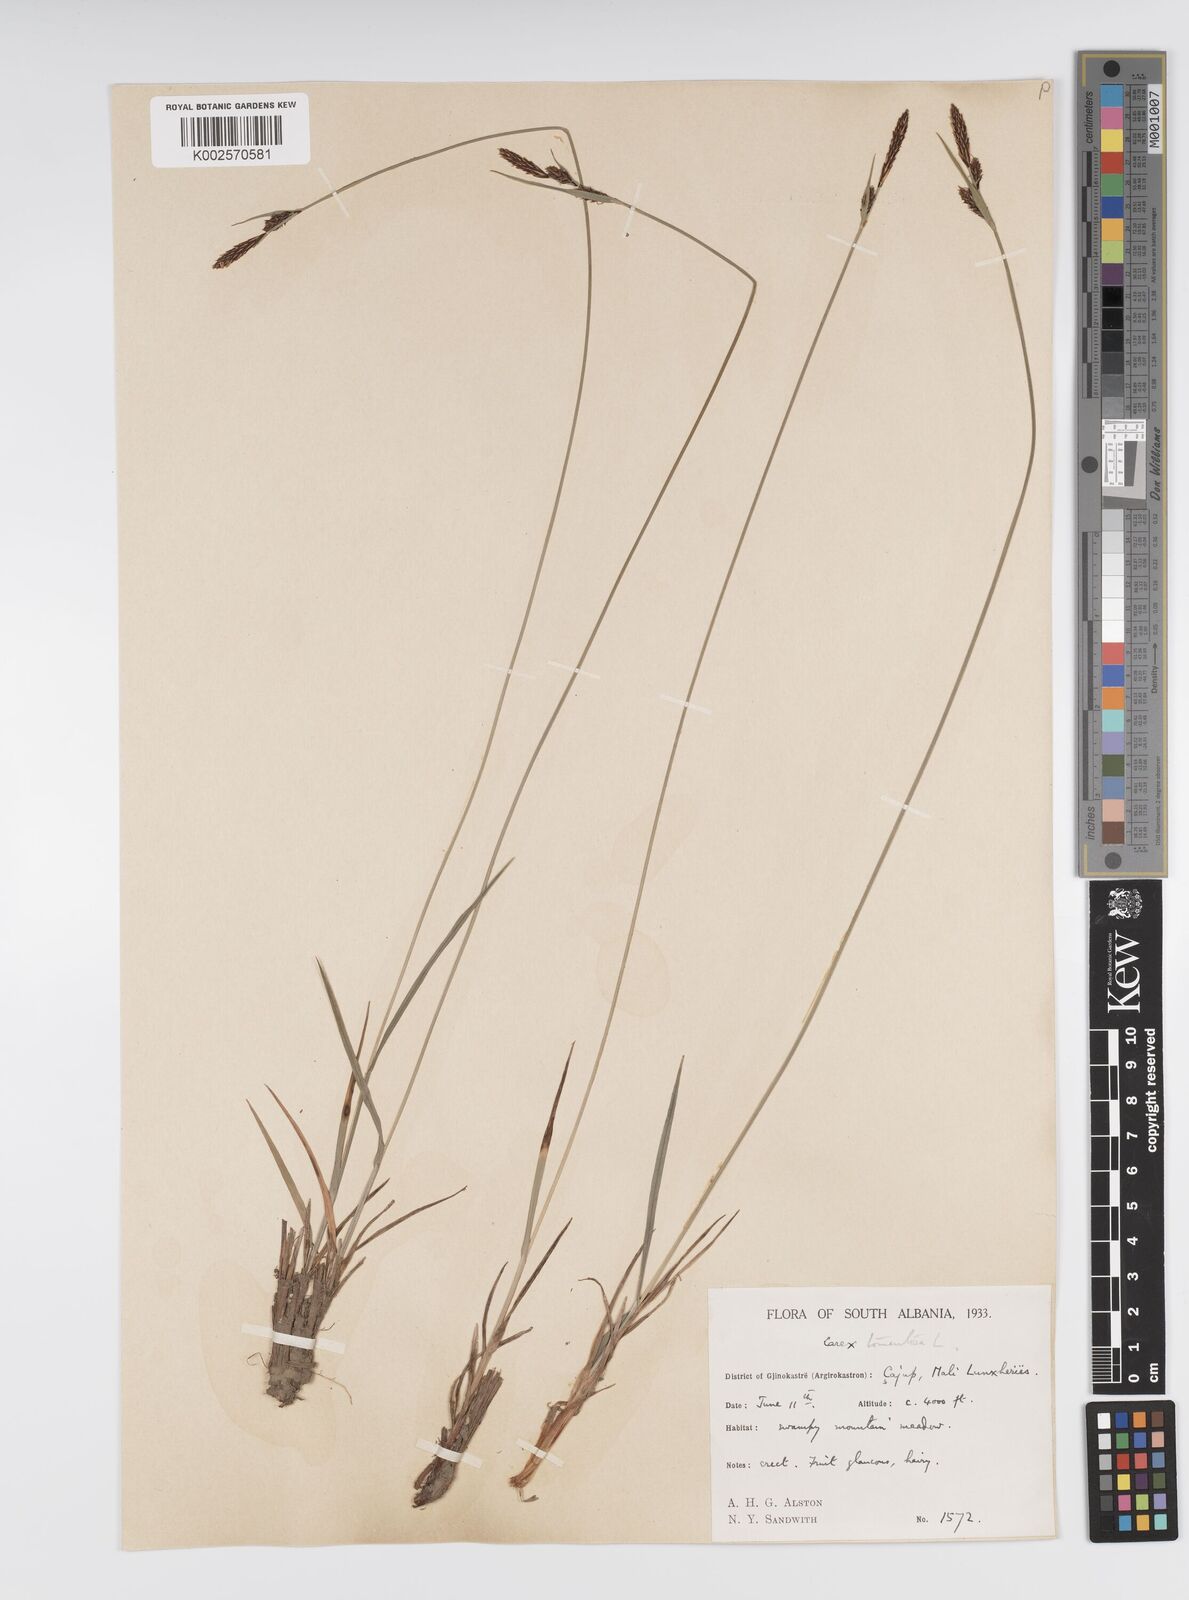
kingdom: Plantae
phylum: Tracheophyta
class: Liliopsida
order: Poales
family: Cyperaceae
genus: Carex
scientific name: Carex montana
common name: Soft-leaved sedge
